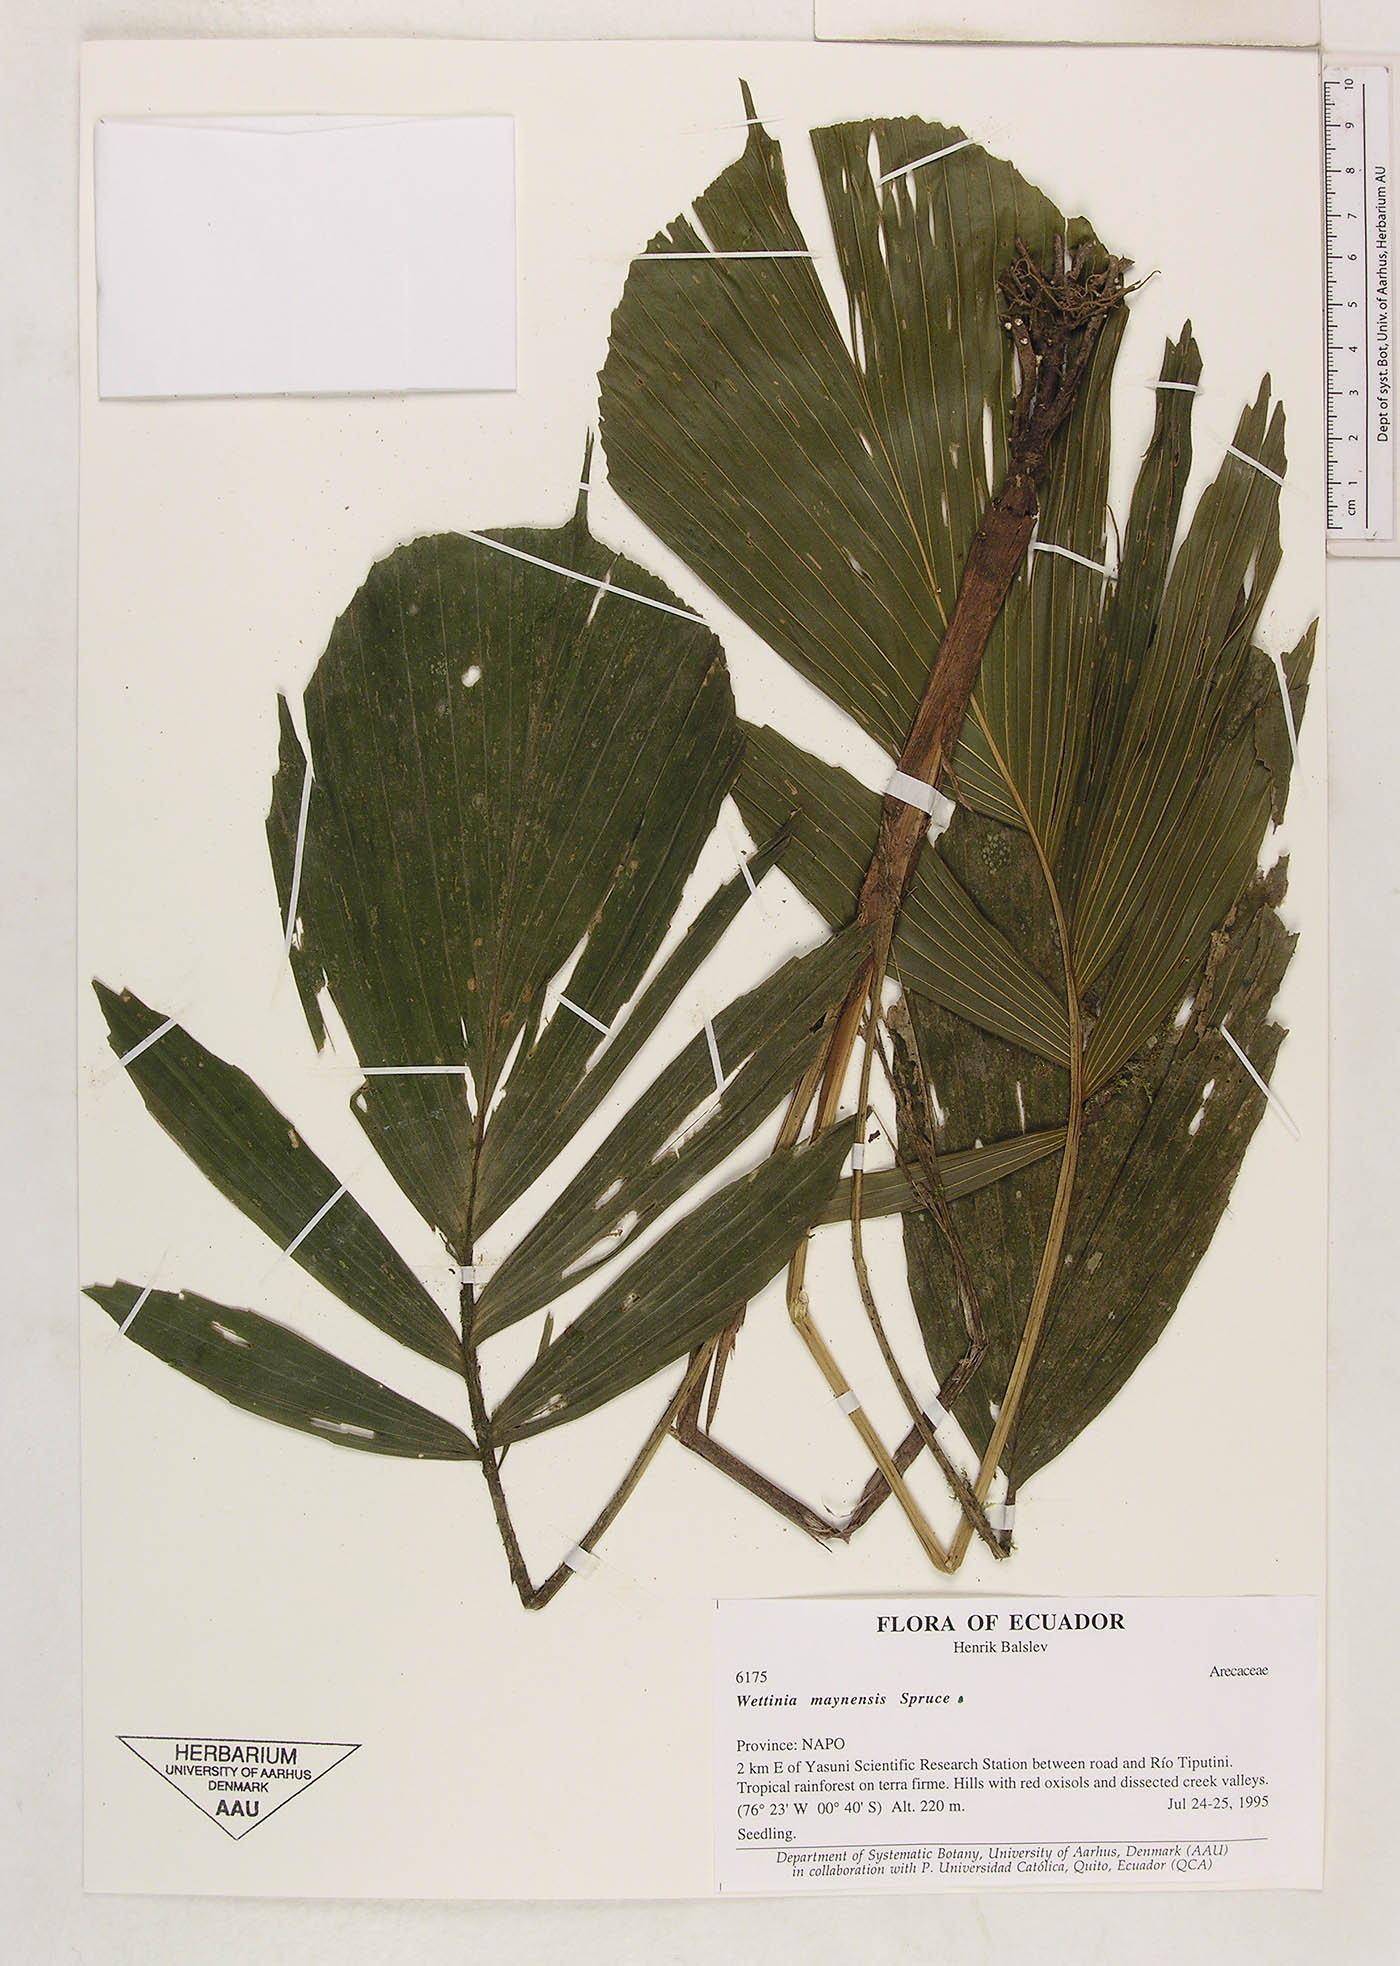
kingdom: Plantae
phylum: Tracheophyta
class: Liliopsida
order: Arecales
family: Arecaceae
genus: Wettinia
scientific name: Wettinia maynensis
